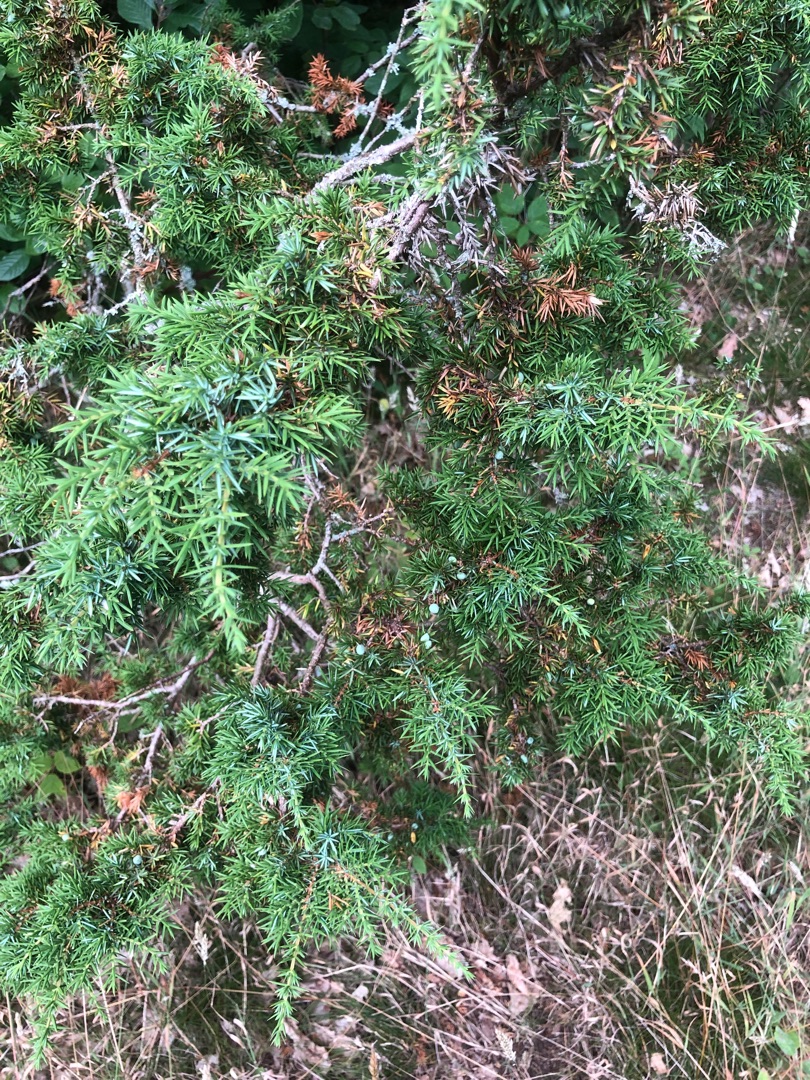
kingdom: Plantae
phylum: Tracheophyta
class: Pinopsida
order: Pinales
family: Cupressaceae
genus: Juniperus
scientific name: Juniperus communis
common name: Almindelig ene
